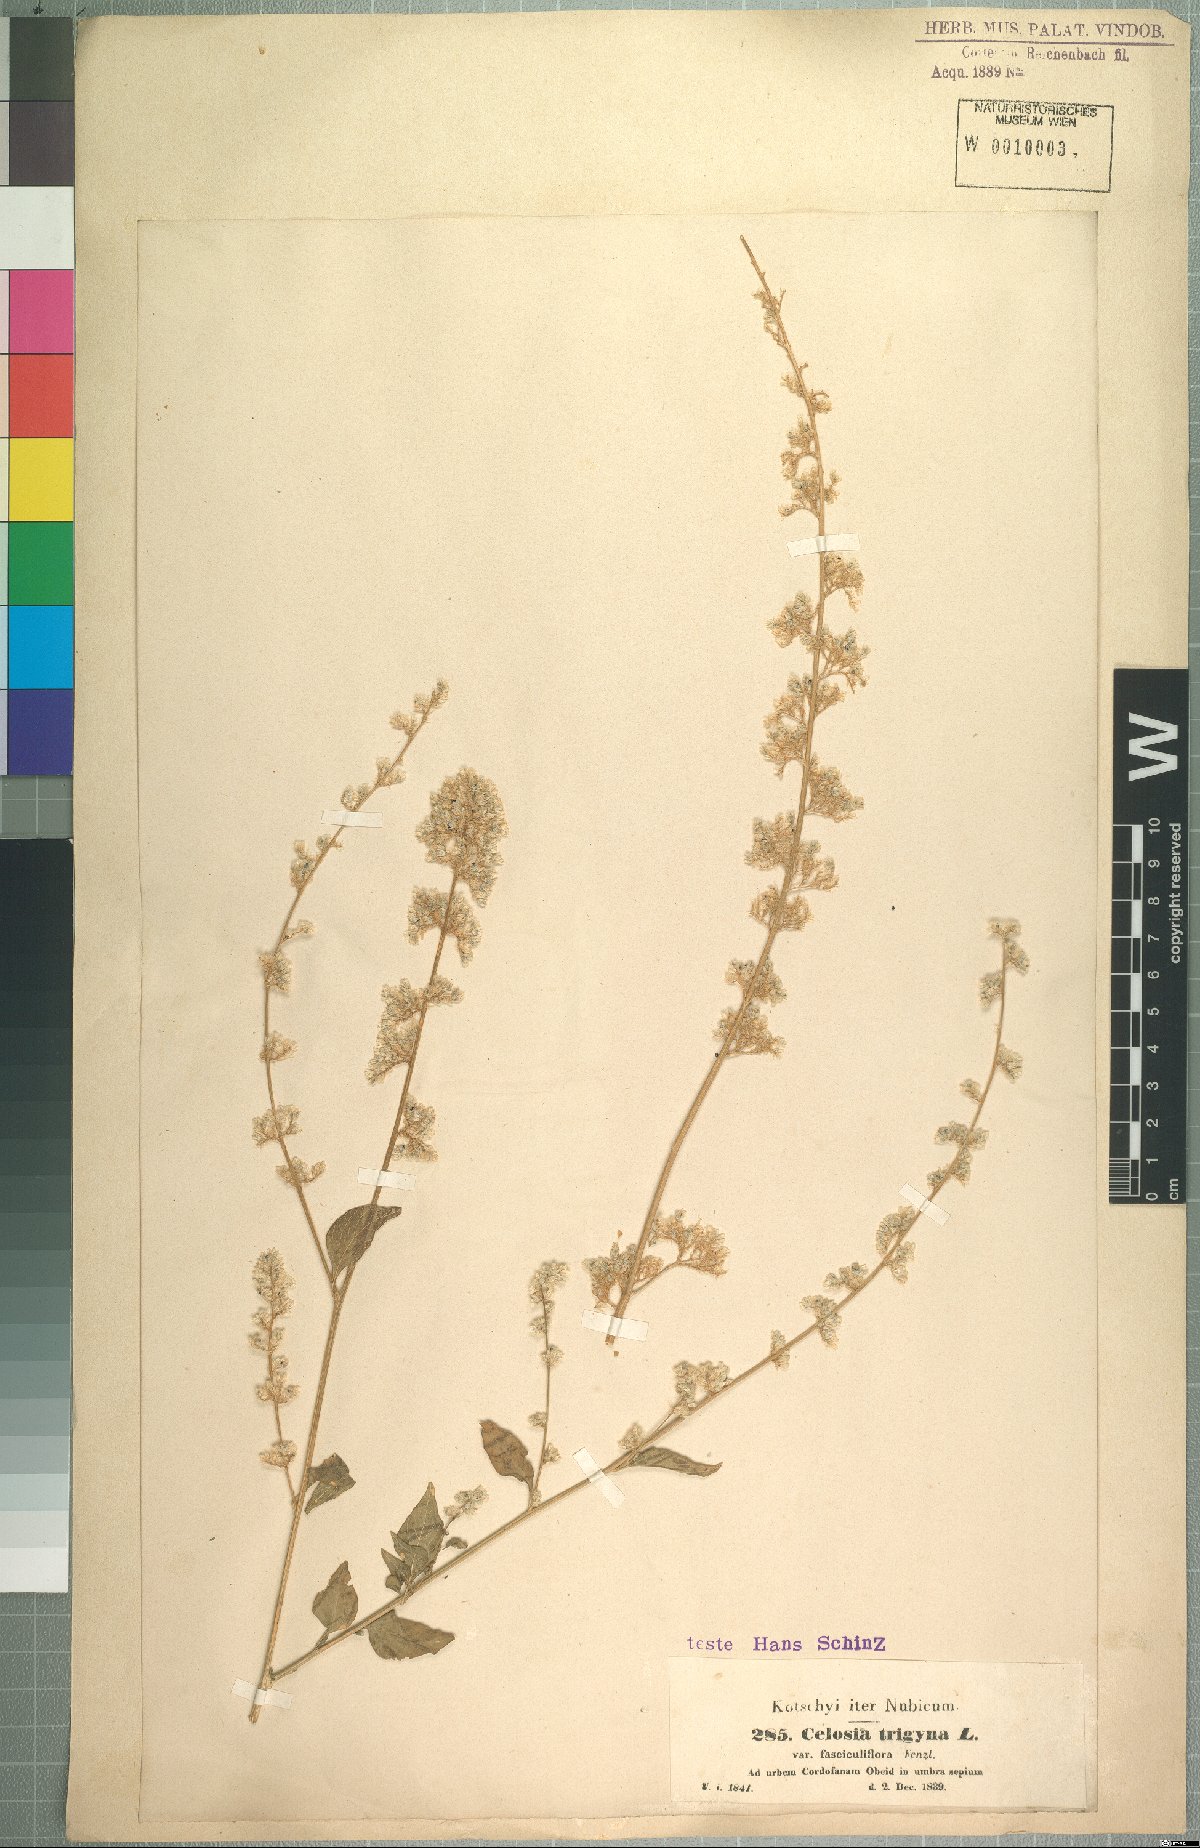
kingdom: Plantae
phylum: Tracheophyta
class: Magnoliopsida
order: Caryophyllales
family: Amaranthaceae
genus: Celosia
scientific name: Celosia trigyna
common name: Woolflower
